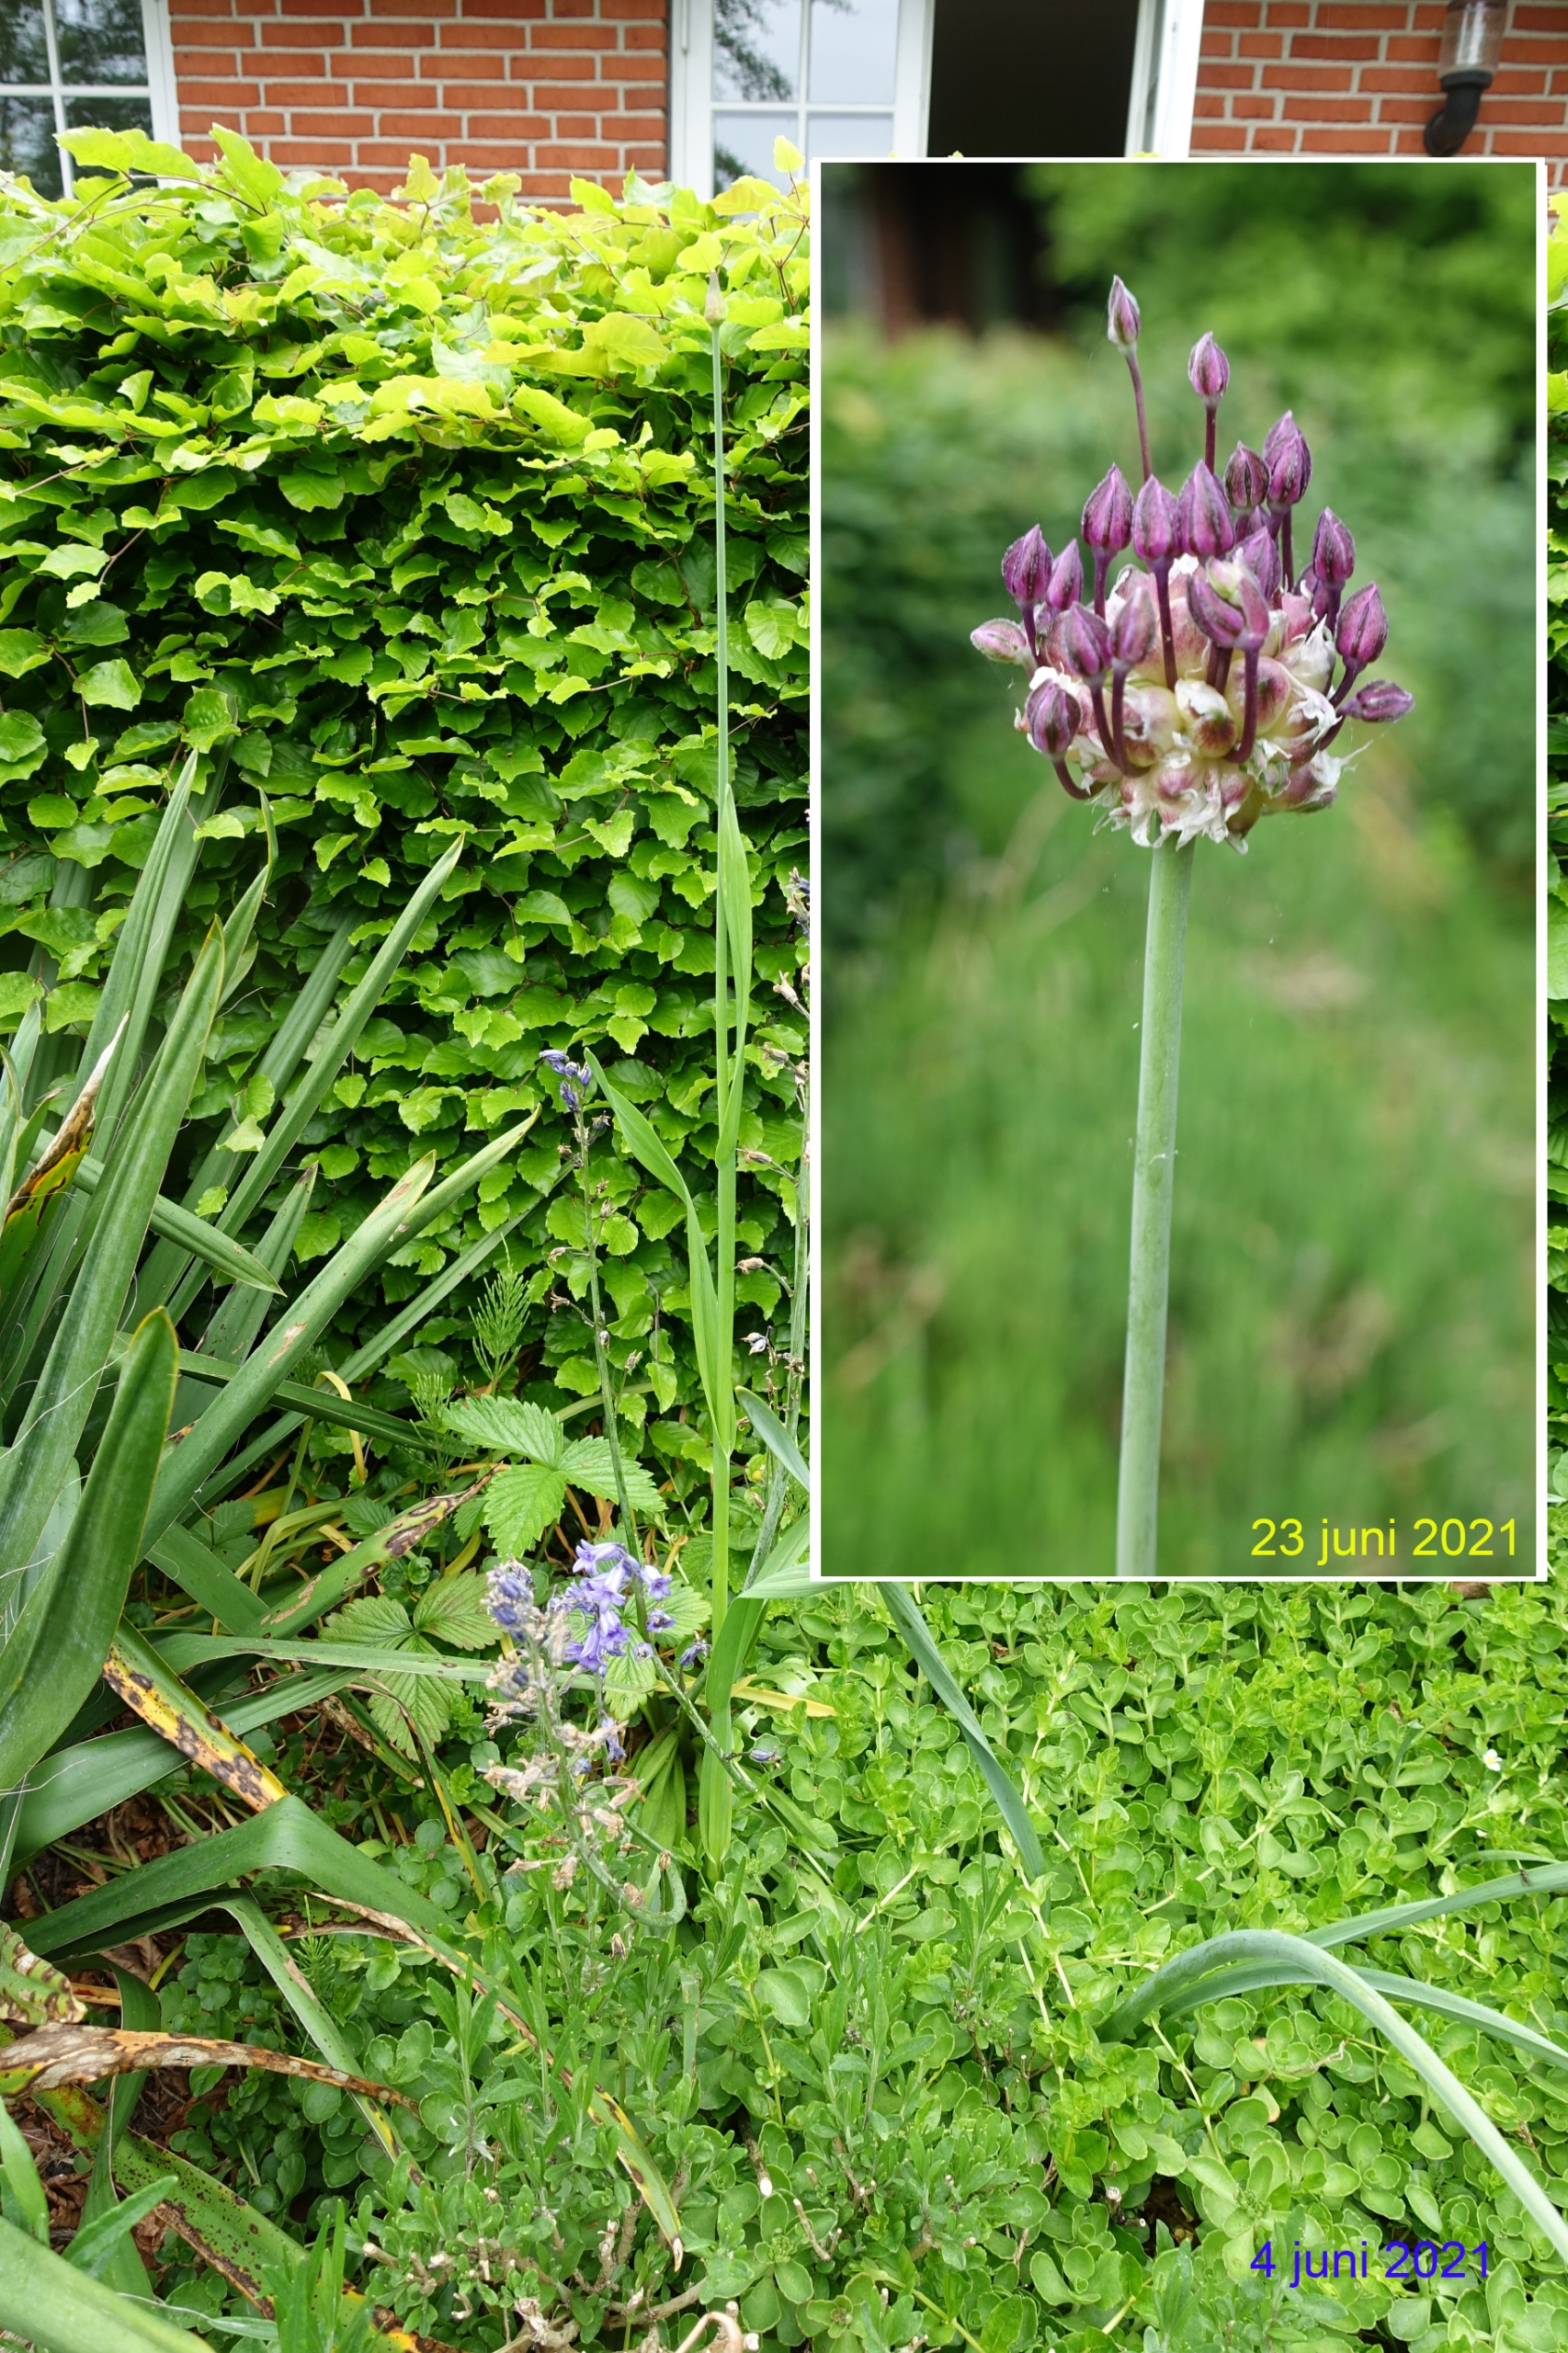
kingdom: Plantae
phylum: Tracheophyta
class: Liliopsida
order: Asparagales
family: Amaryllidaceae
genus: Allium
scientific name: Allium scorodoprasum
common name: Skov-løg
